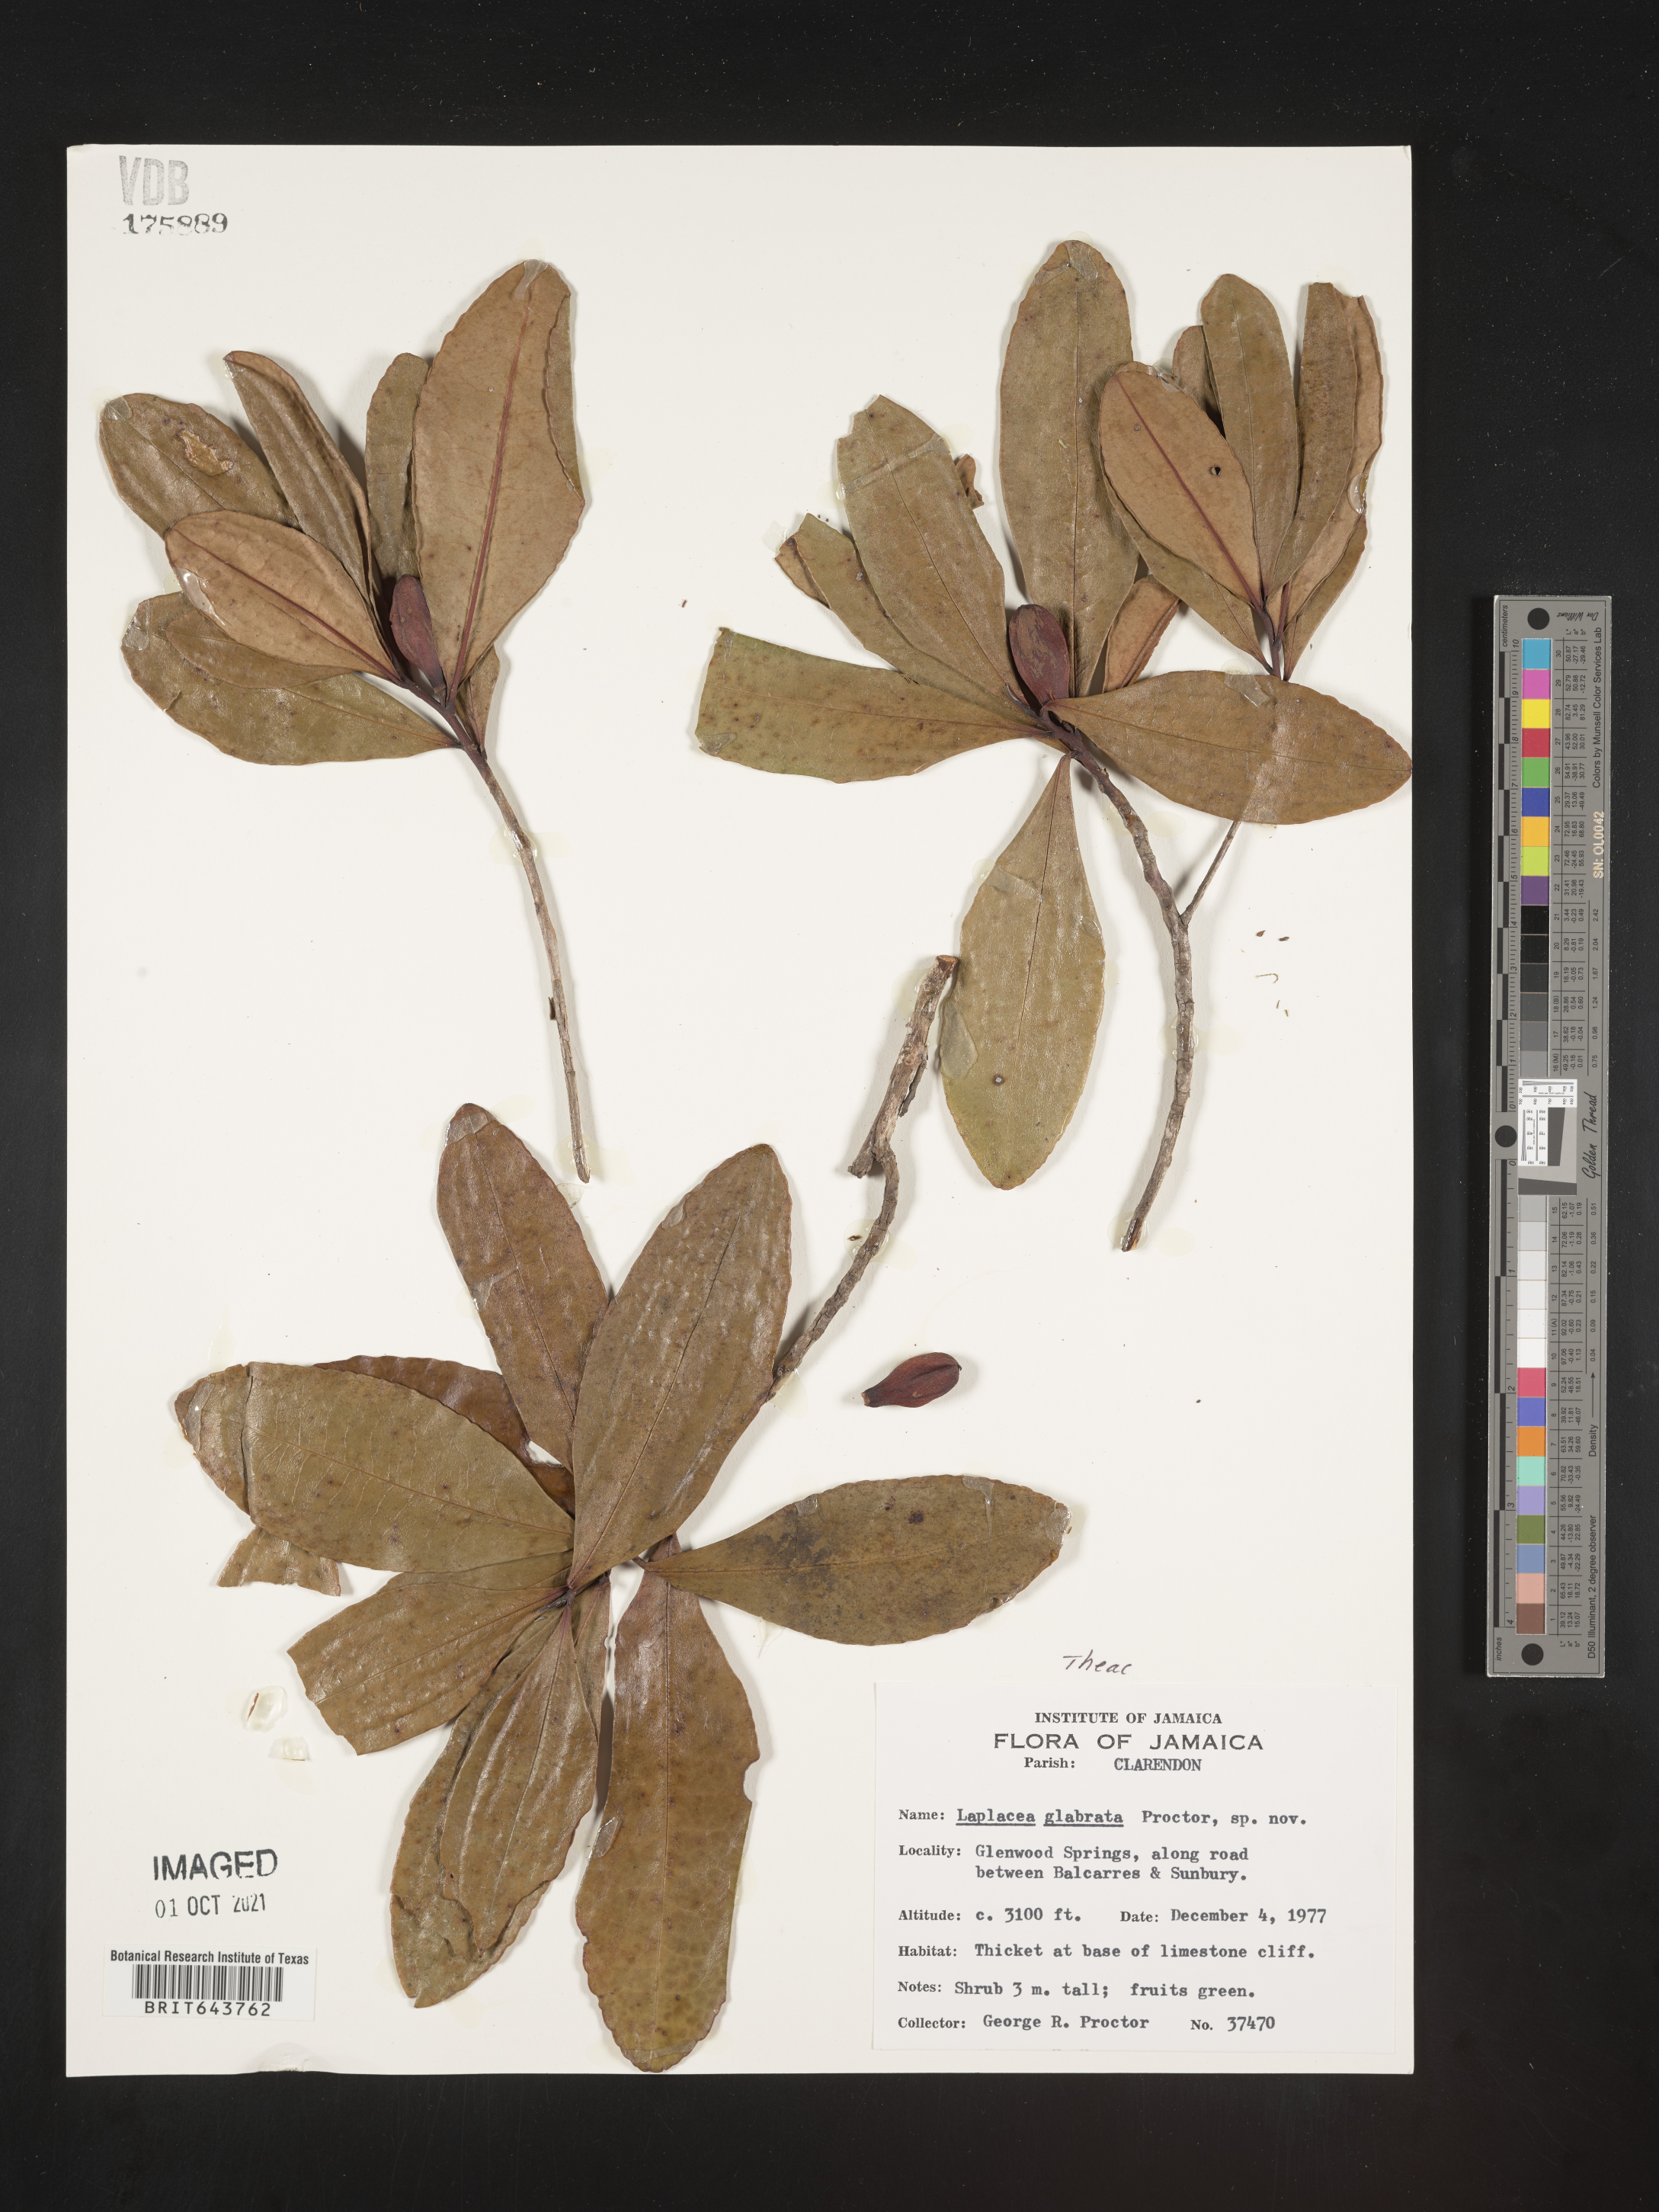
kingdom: Plantae
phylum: Tracheophyta
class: Magnoliopsida
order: Ericales
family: Theaceae
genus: Gordonia
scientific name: Gordonia
